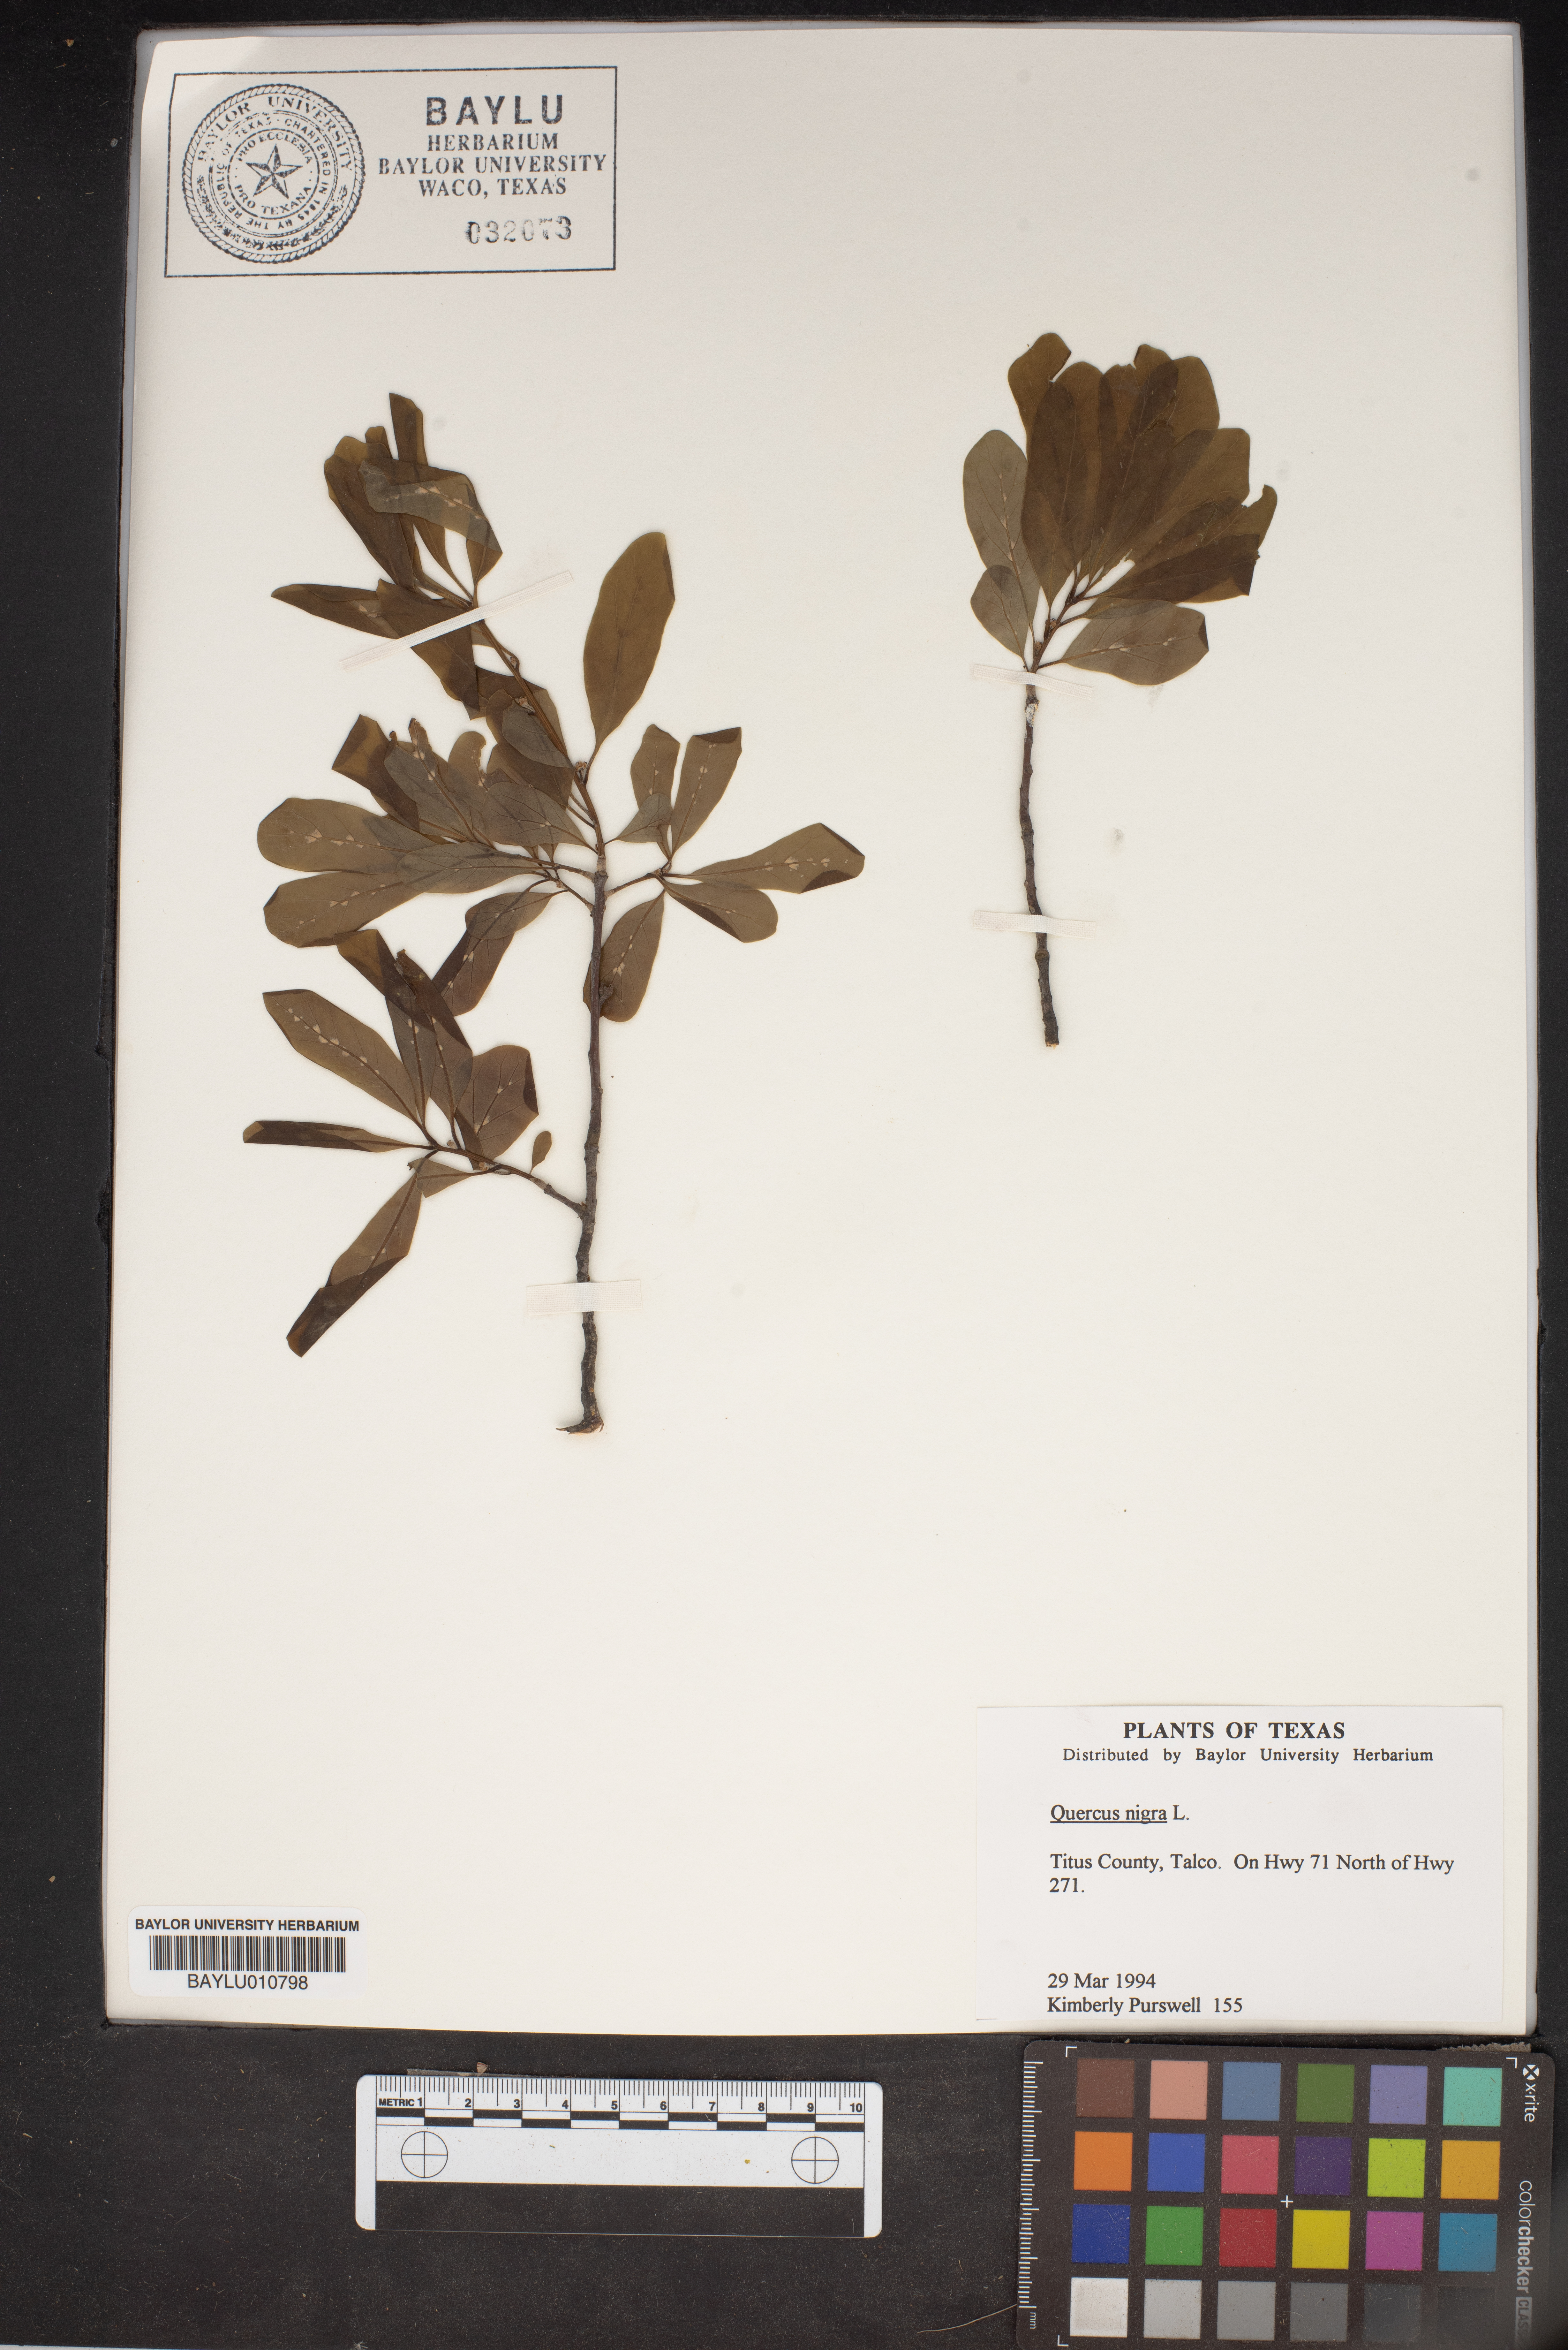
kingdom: Plantae
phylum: Tracheophyta
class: Magnoliopsida
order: Fagales
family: Fagaceae
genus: Quercus
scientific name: Quercus nigra
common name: Water oak
